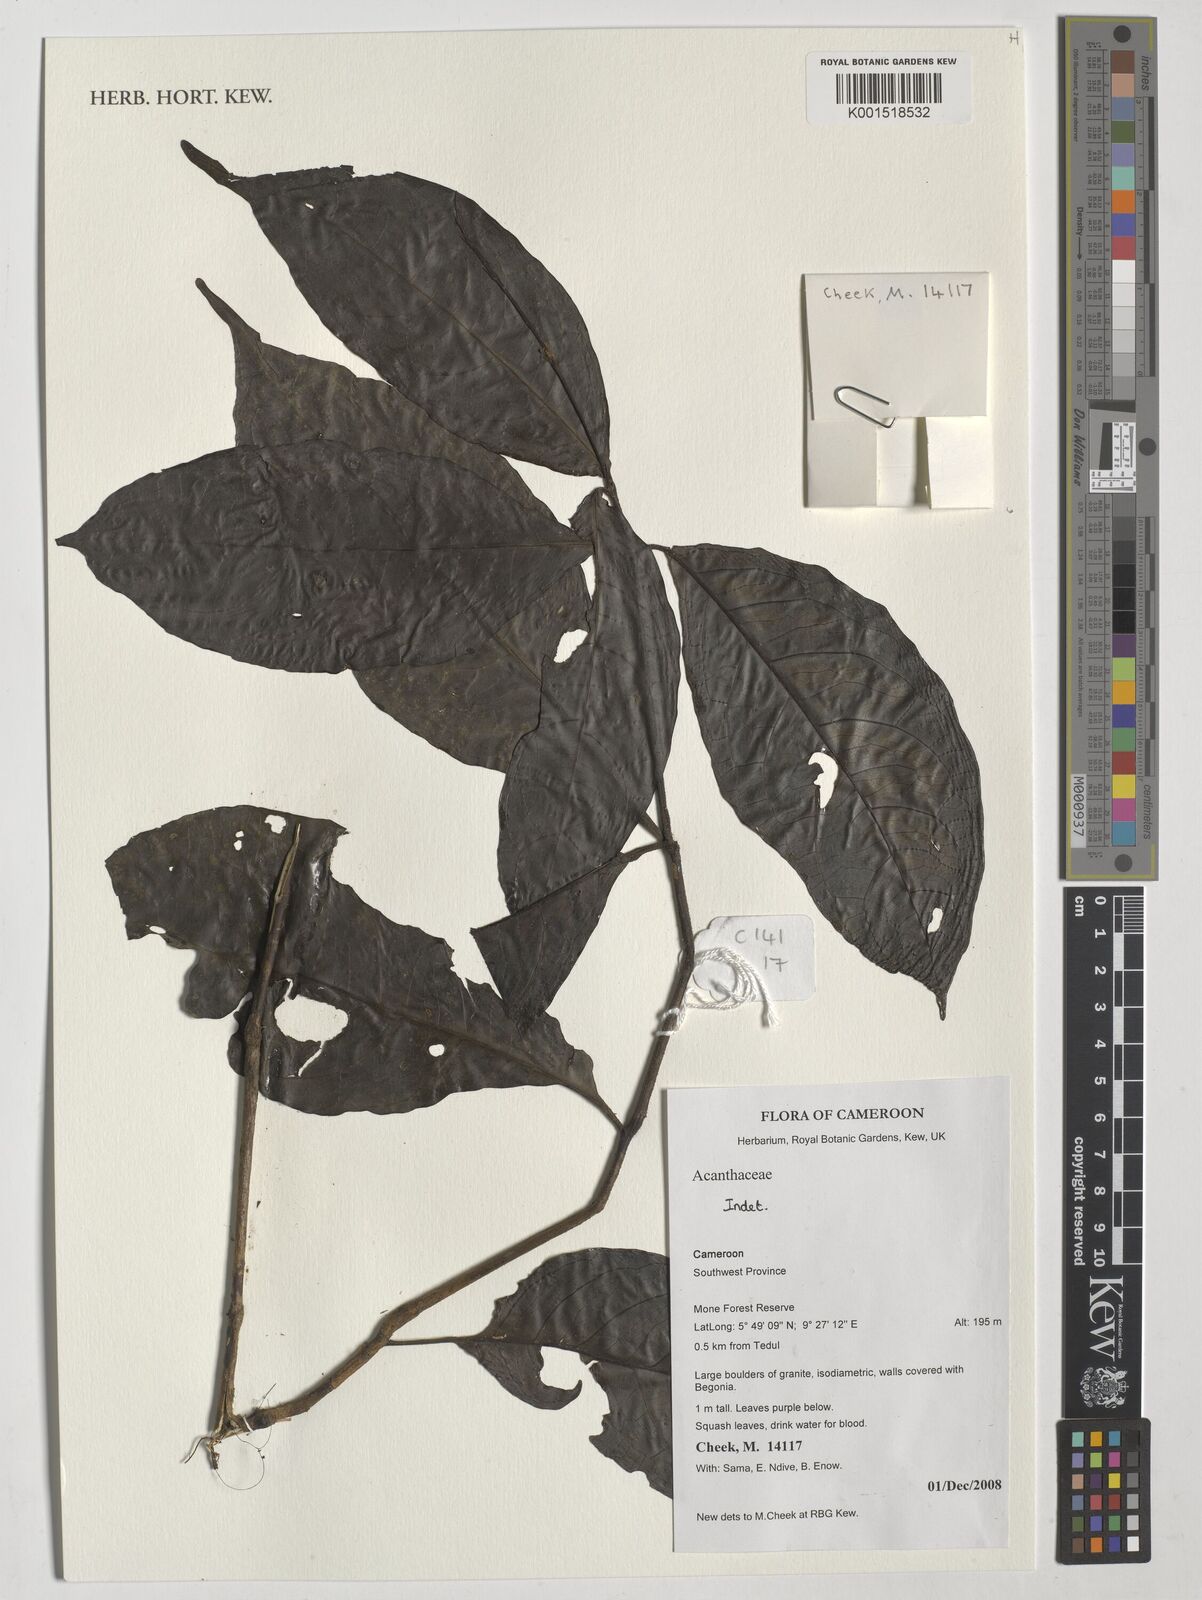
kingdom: Plantae
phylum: Tracheophyta
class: Magnoliopsida
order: Lamiales
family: Acanthaceae
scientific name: Acanthaceae
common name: Acanthaceae
